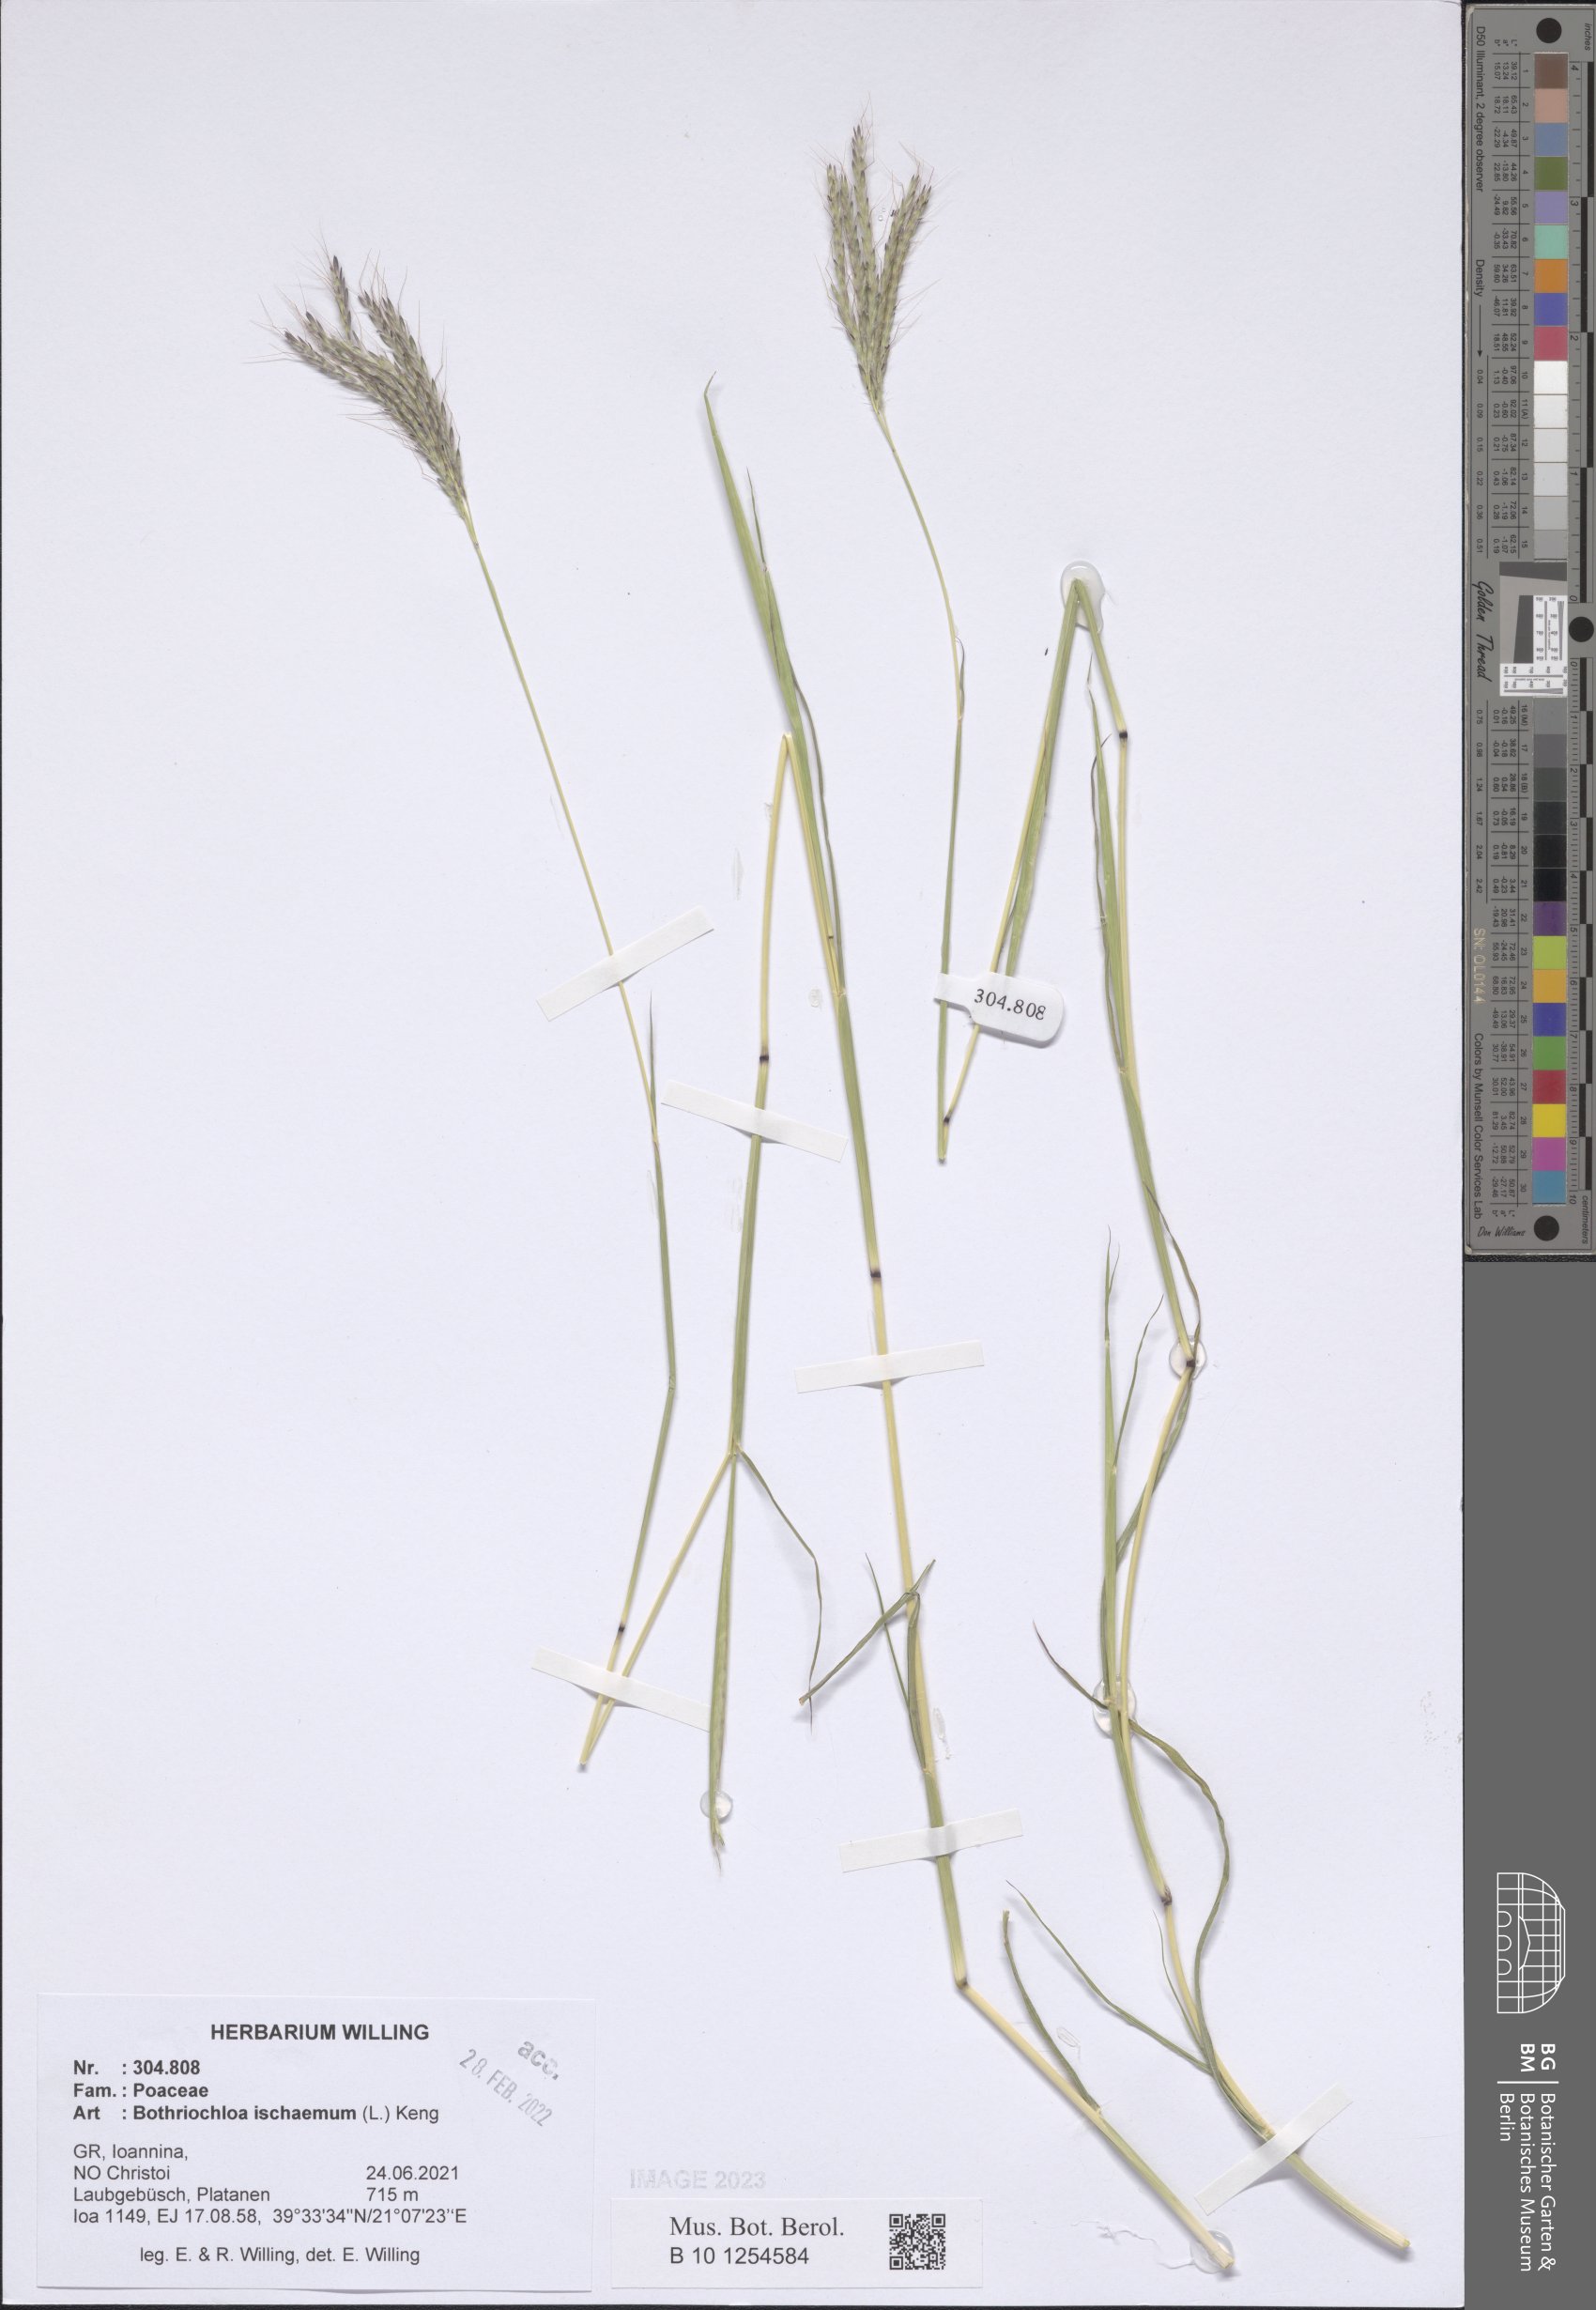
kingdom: Plantae
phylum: Tracheophyta
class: Liliopsida
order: Poales
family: Poaceae
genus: Bothriochloa
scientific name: Bothriochloa ischaemum
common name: Yellow bluestem
